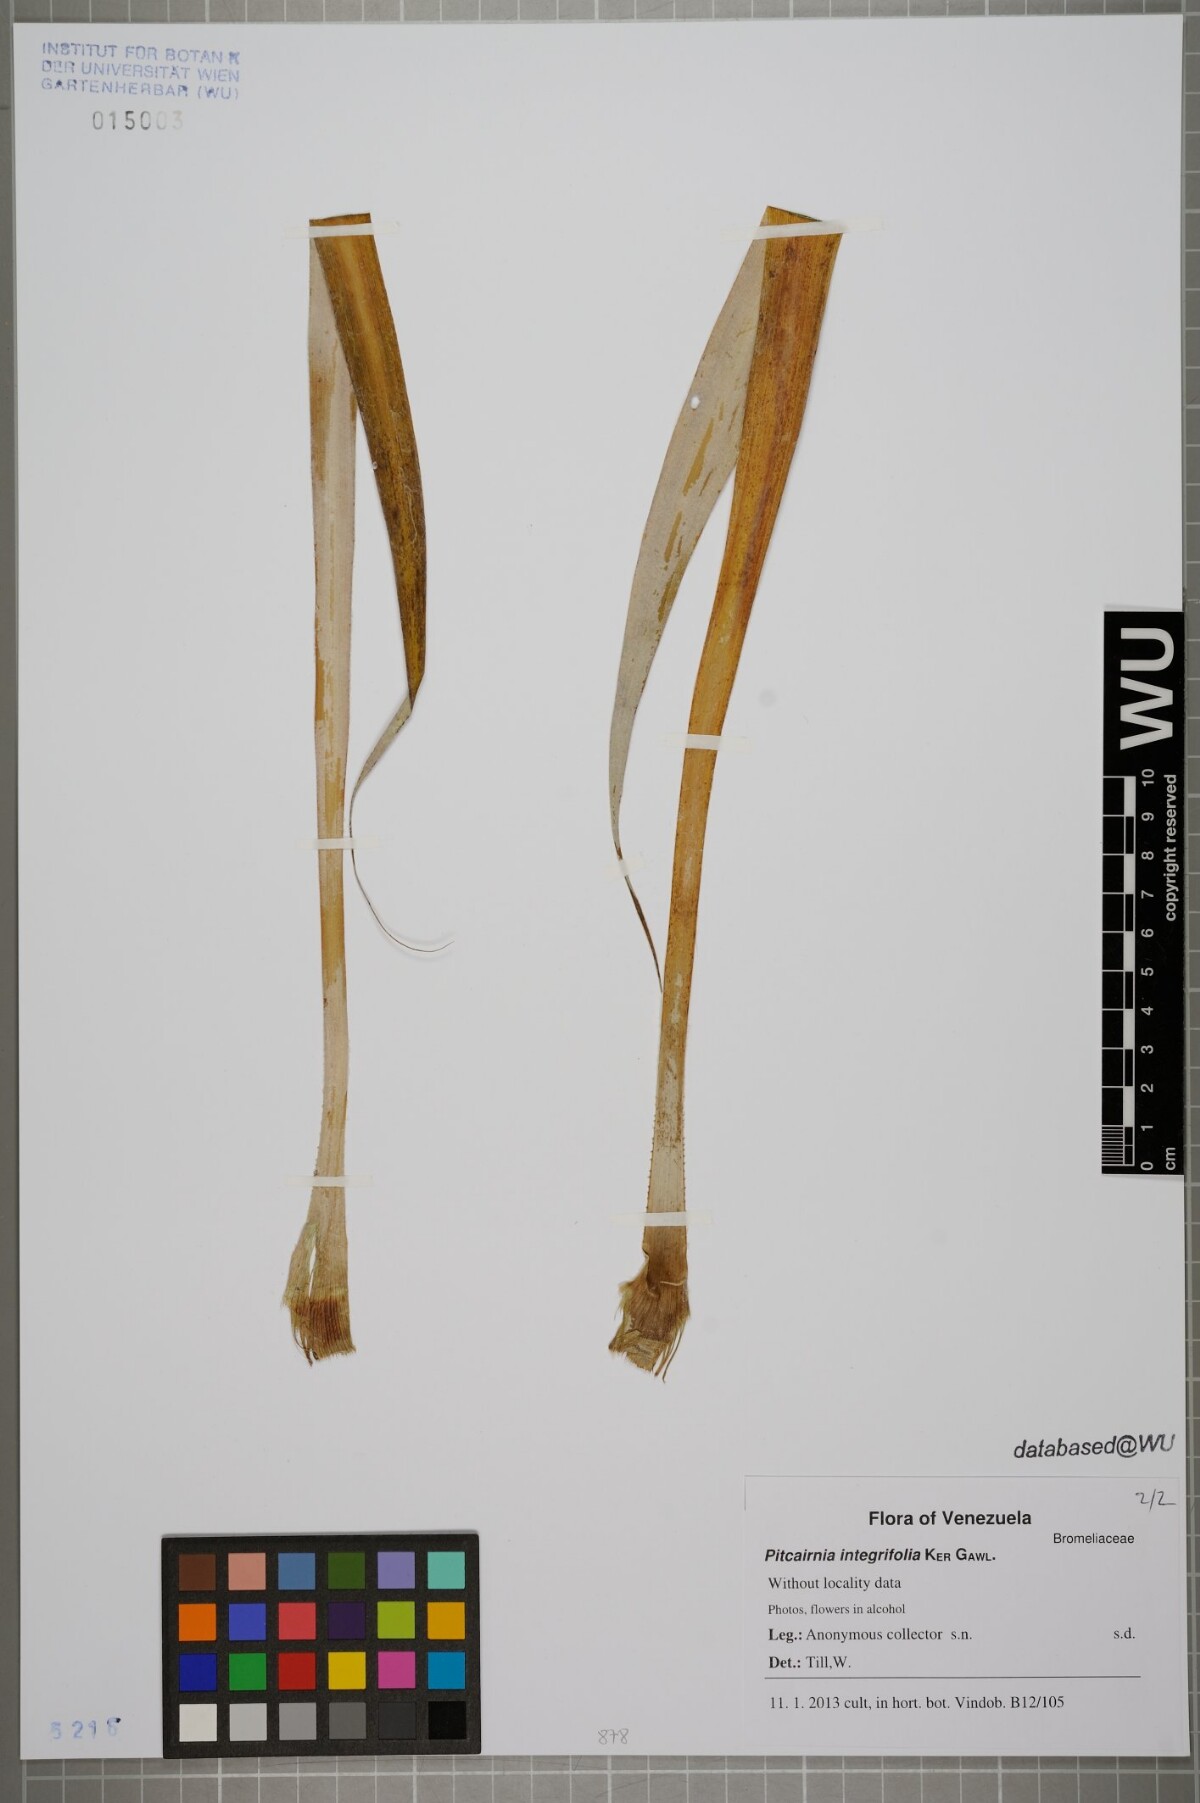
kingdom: Plantae
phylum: Tracheophyta
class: Liliopsida
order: Poales
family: Bromeliaceae
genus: Pitcairnia
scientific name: Pitcairnia integrifolia
